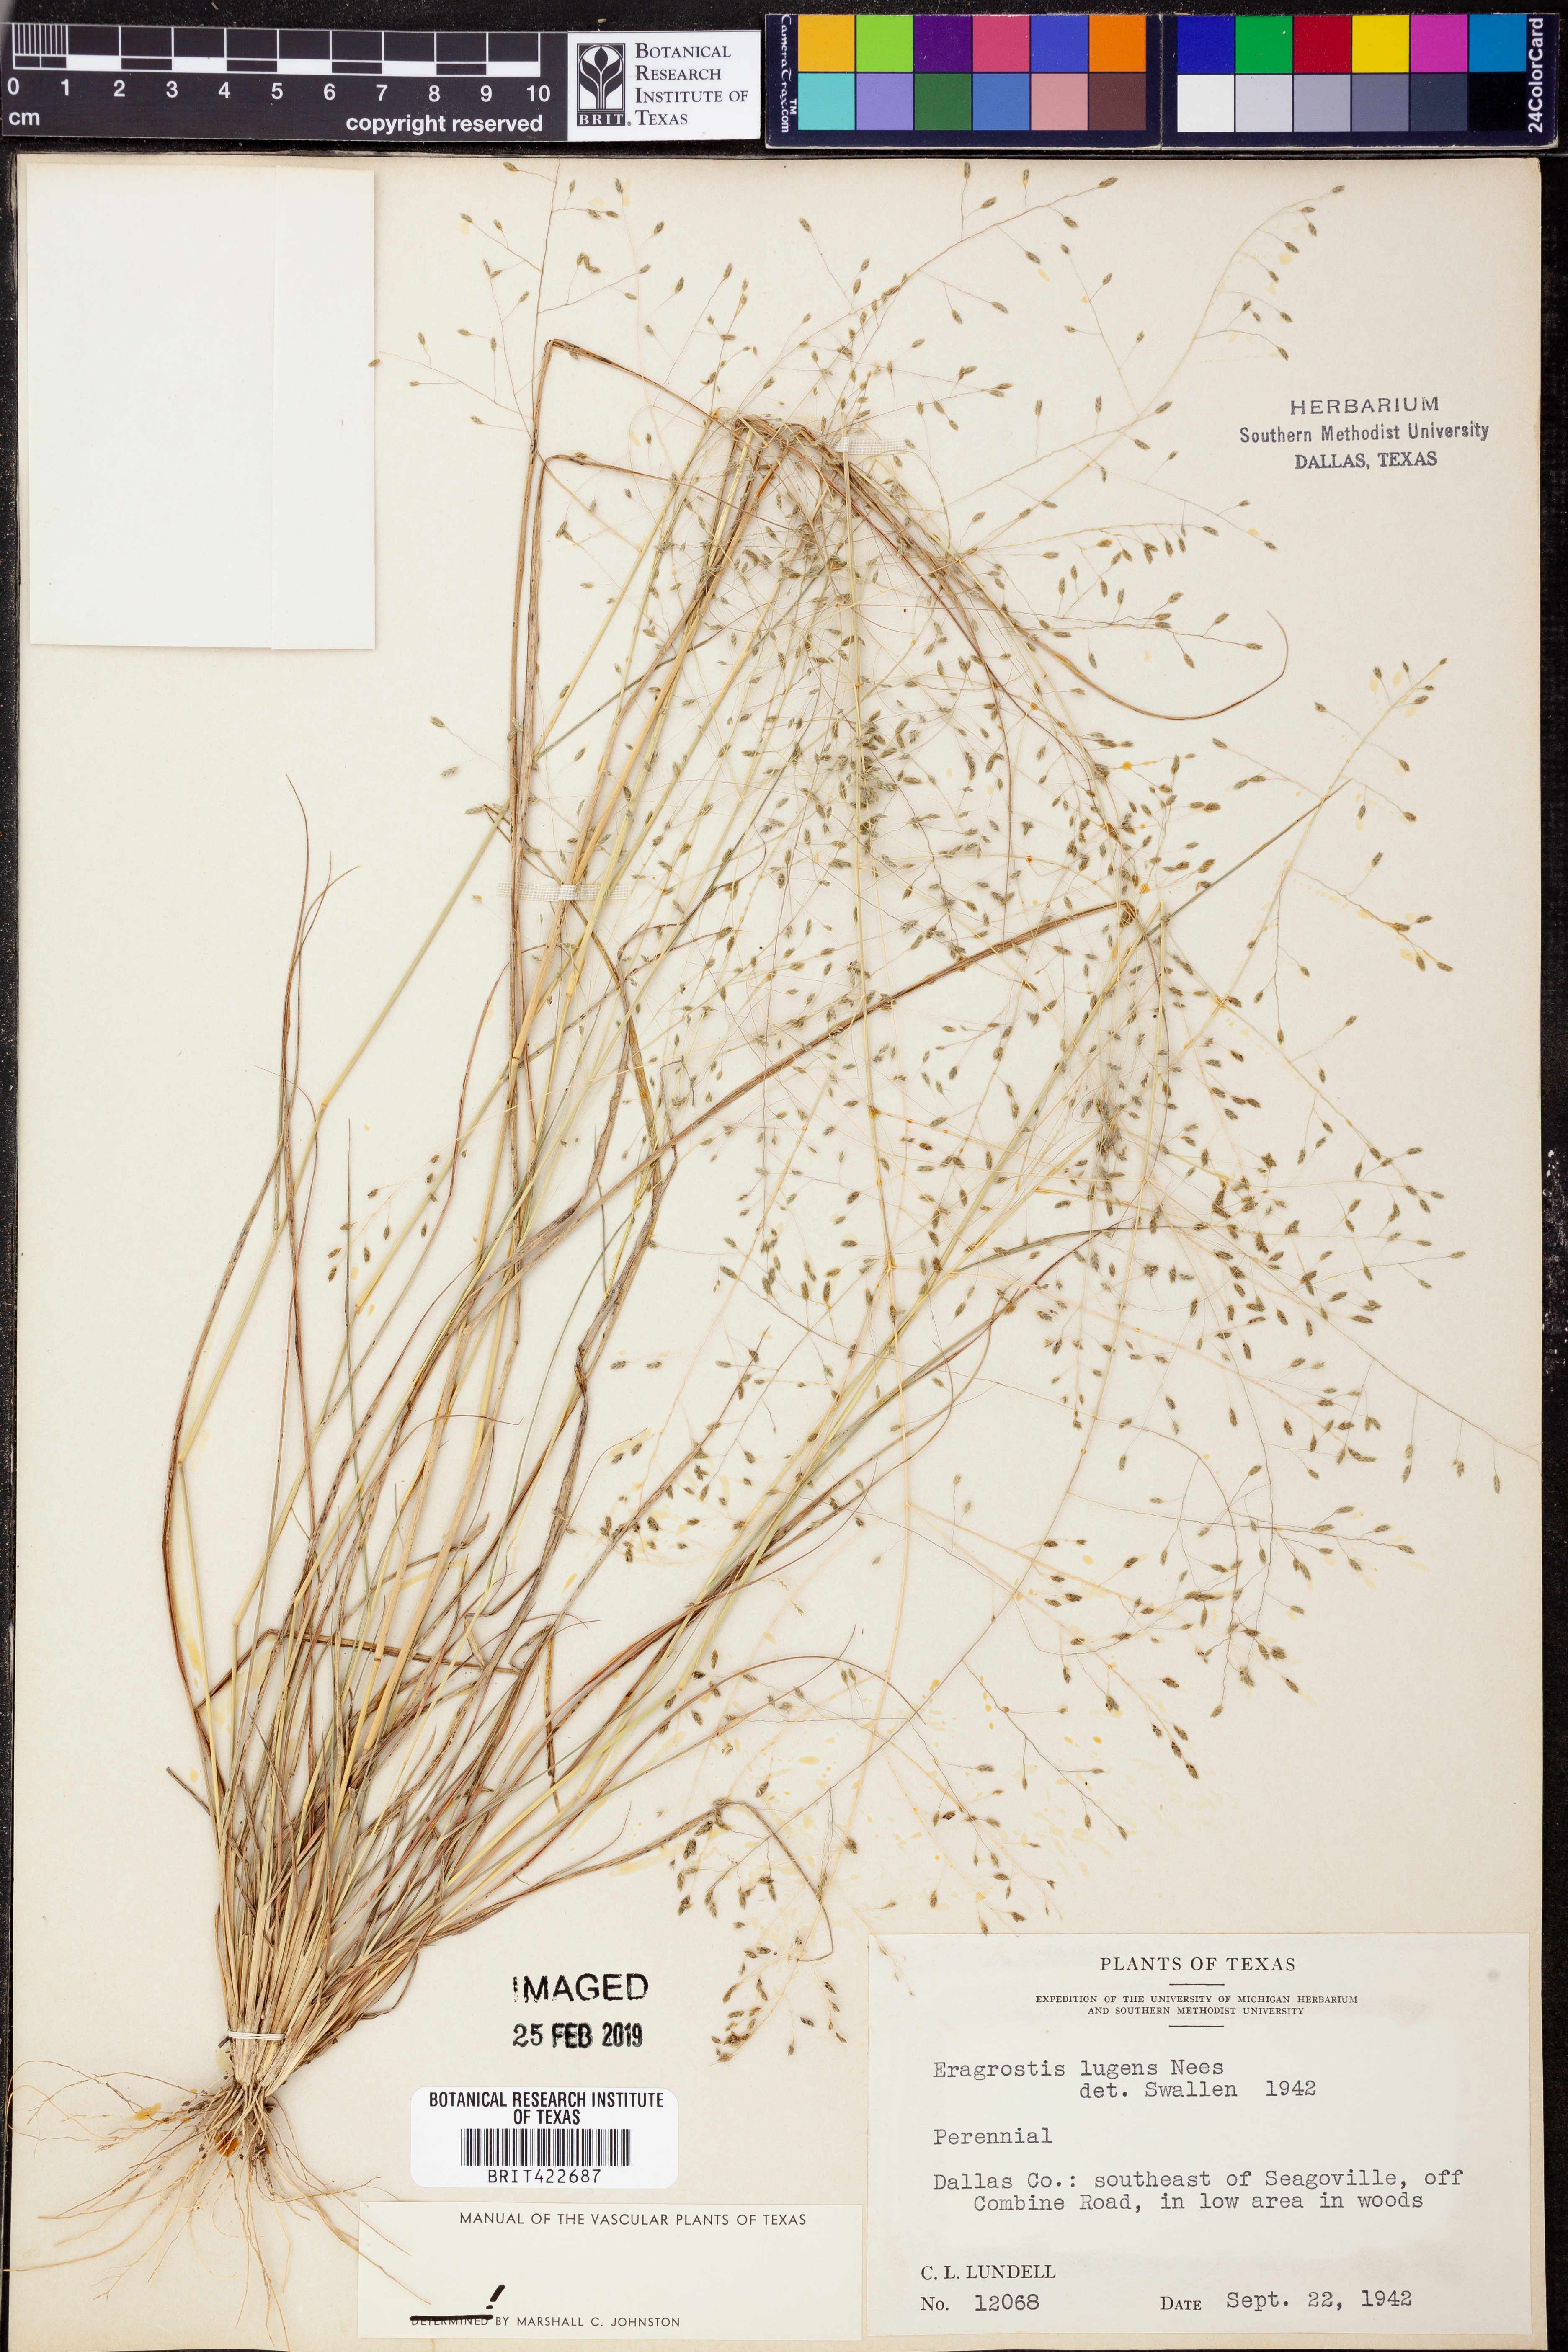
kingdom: Plantae
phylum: Tracheophyta
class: Liliopsida
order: Poales
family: Poaceae
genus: Eragrostis
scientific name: Eragrostis capillaris
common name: Hair-like lovegrass
